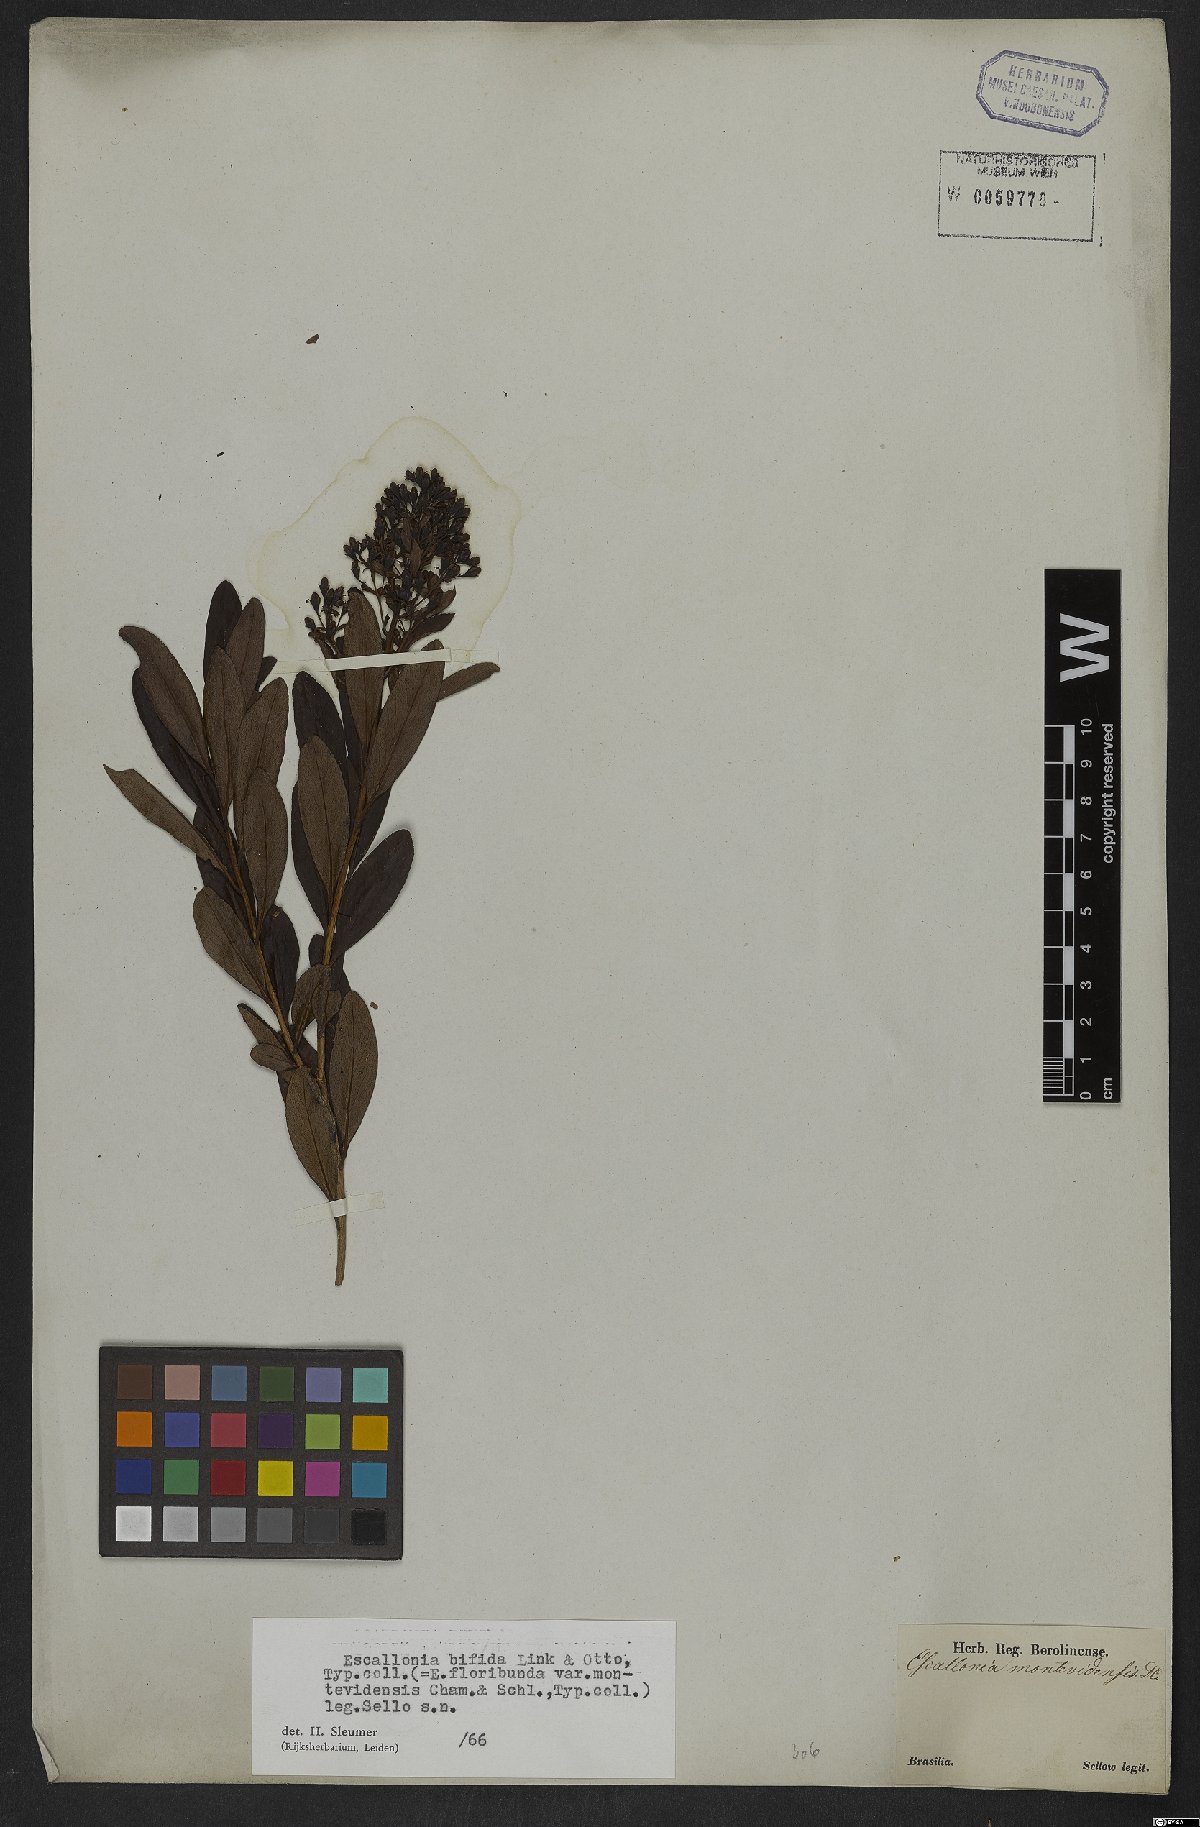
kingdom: Plantae
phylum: Tracheophyta
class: Magnoliopsida
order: Escalloniales
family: Escalloniaceae
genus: Escallonia
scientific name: Escallonia bifida
